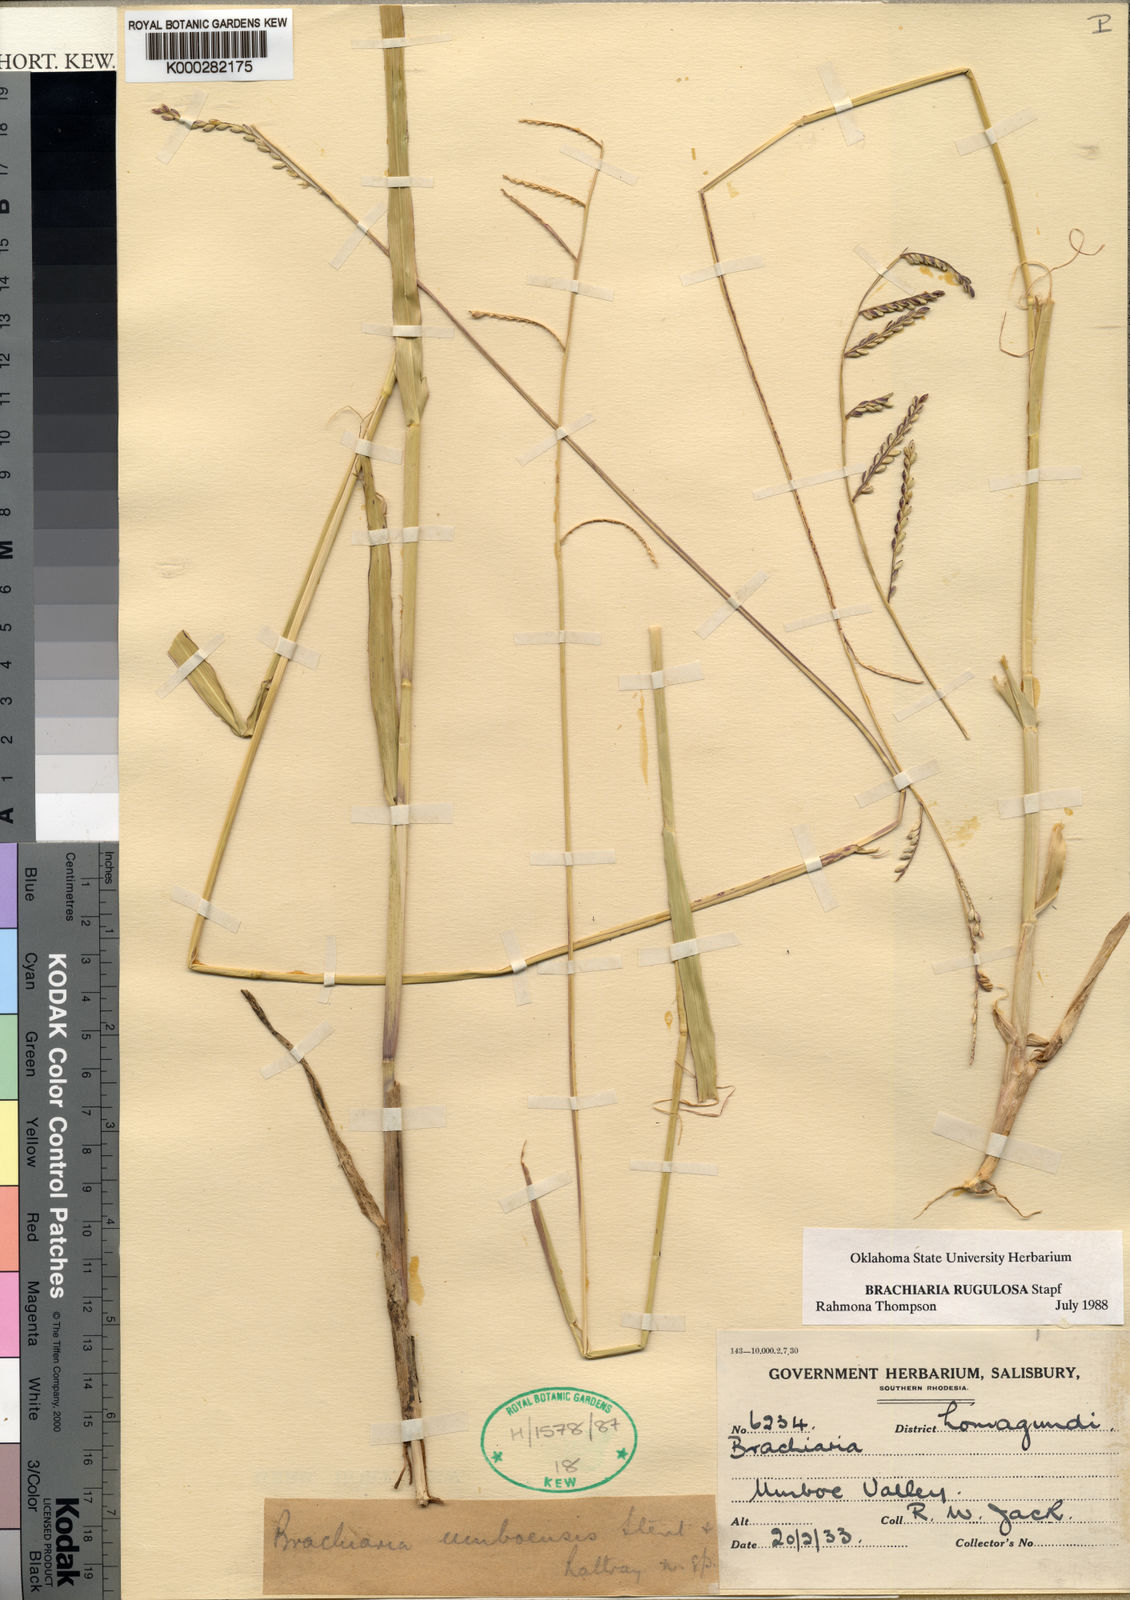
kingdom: Plantae
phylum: Tracheophyta
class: Liliopsida
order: Poales
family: Poaceae
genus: Urochloa
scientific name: Urochloa rugulosa
